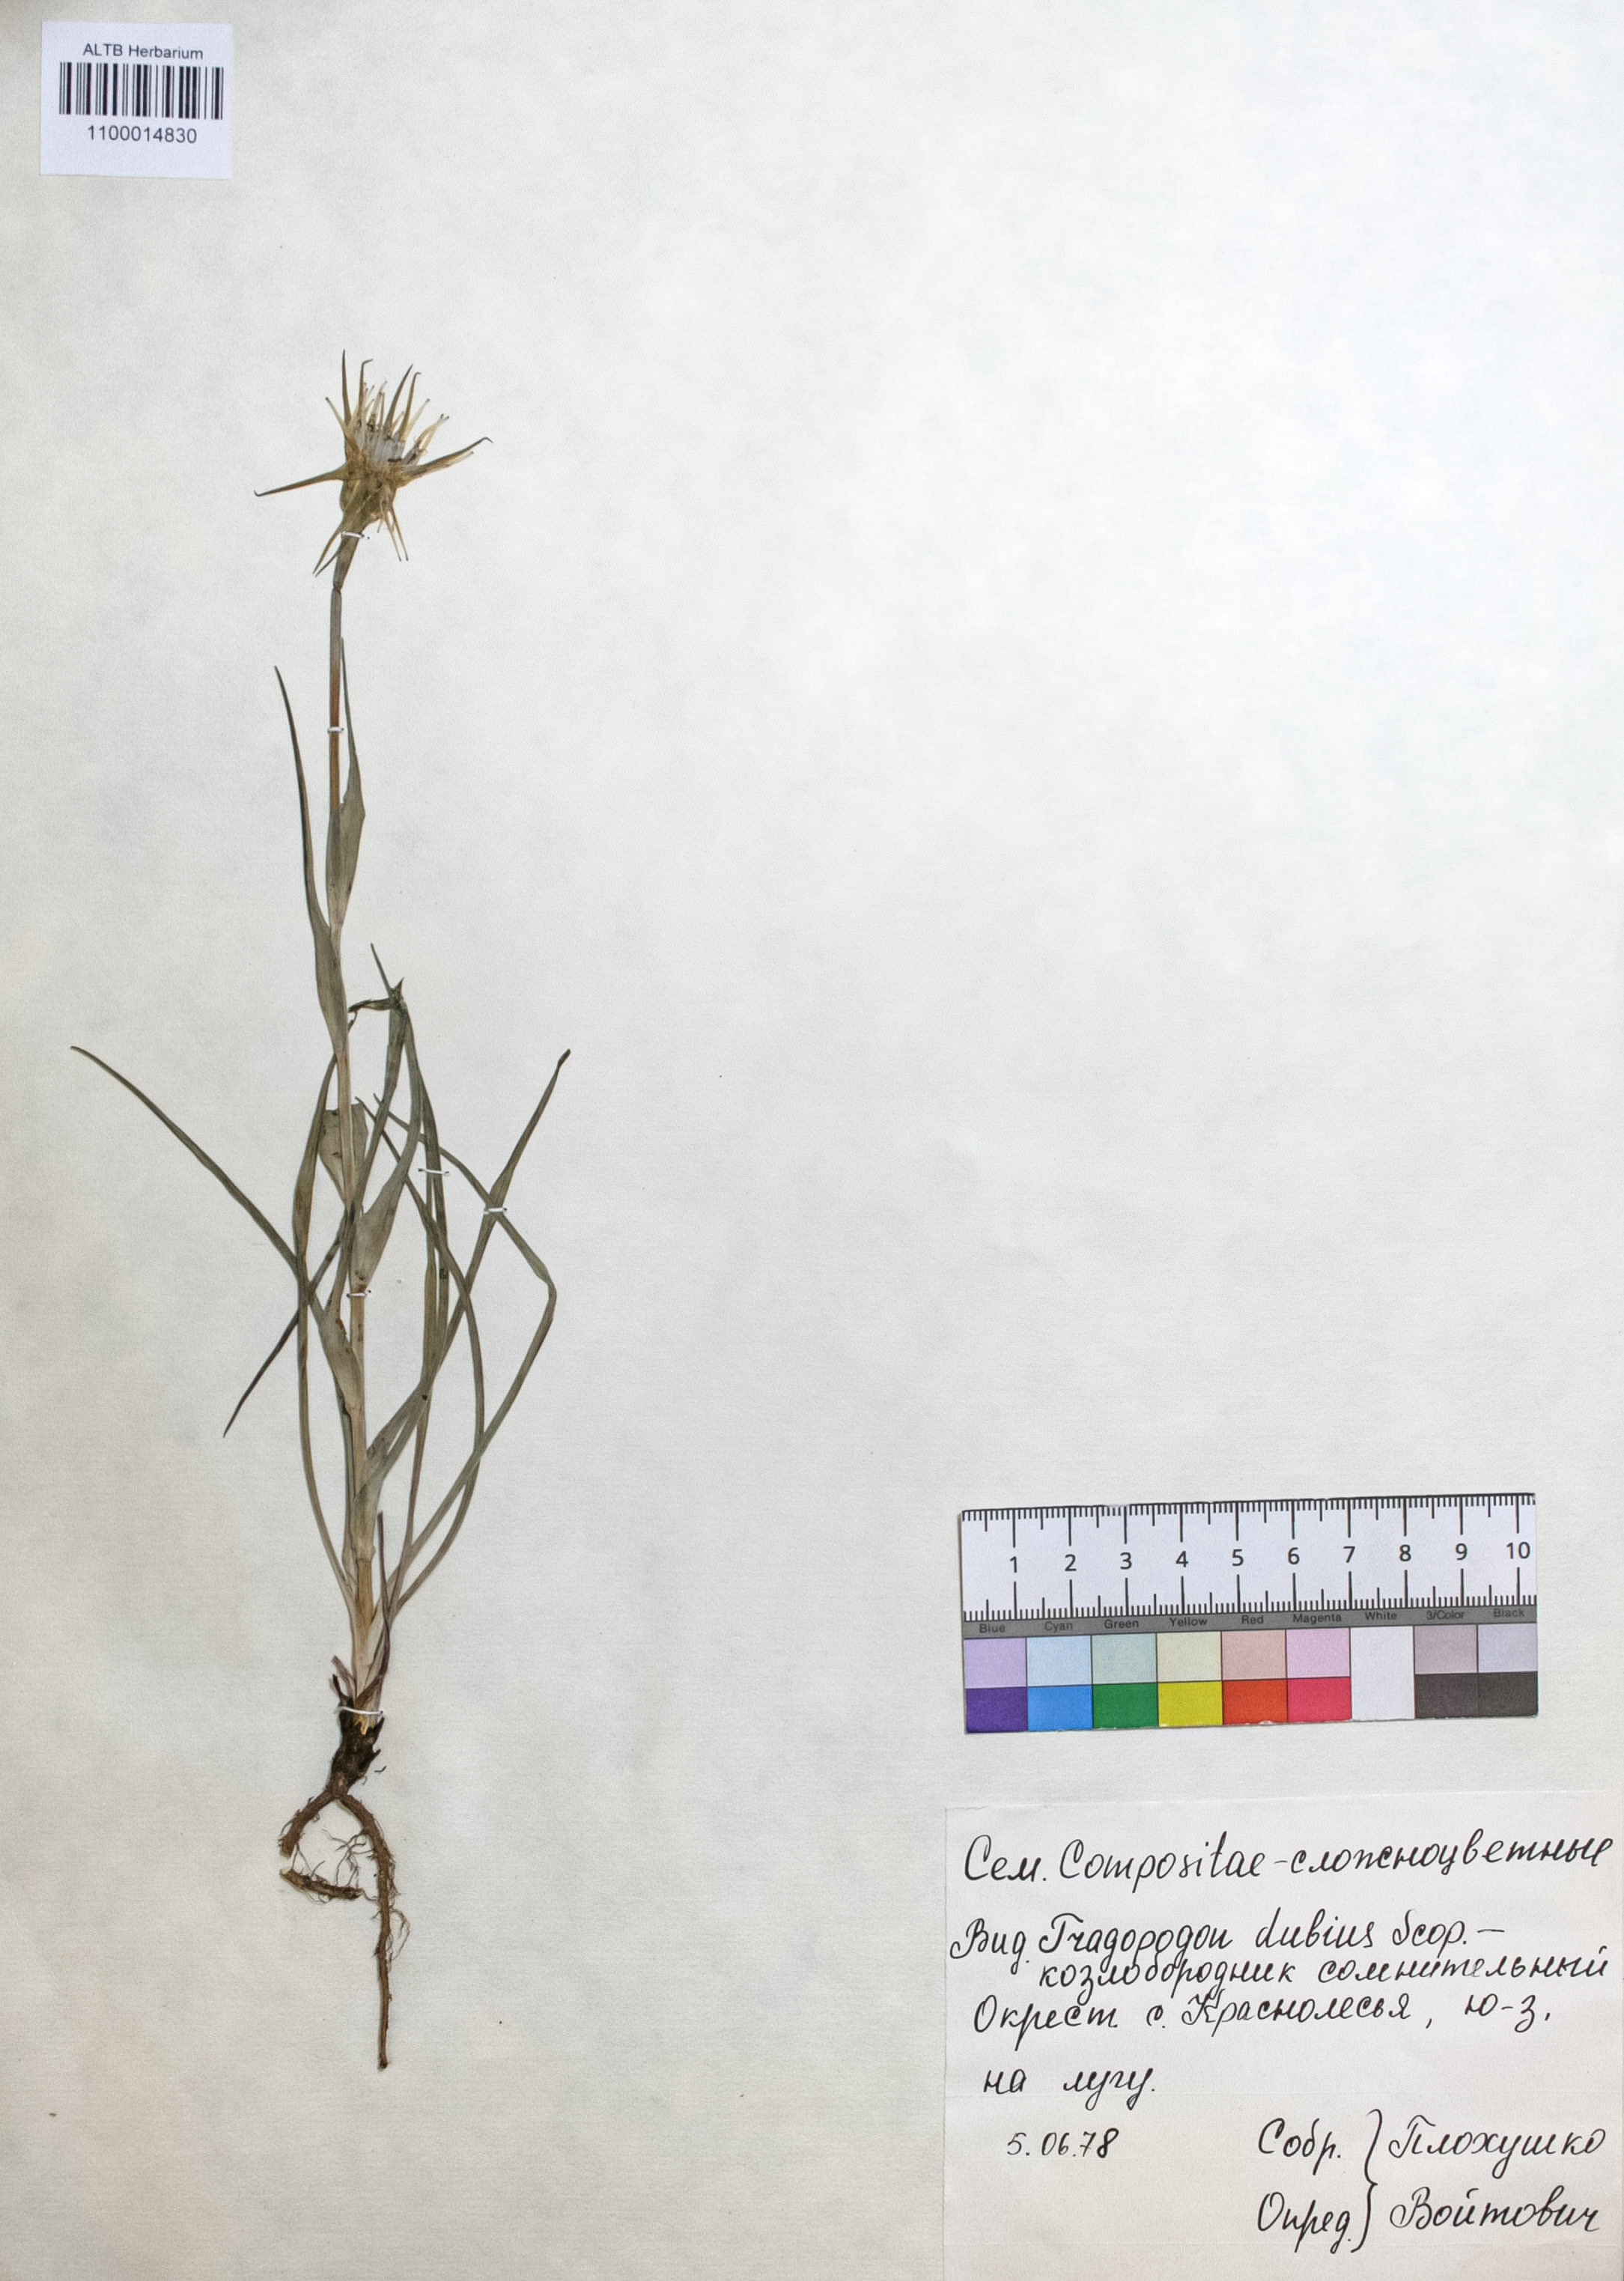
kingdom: Plantae
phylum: Tracheophyta
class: Magnoliopsida
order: Asterales
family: Asteraceae
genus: Tragopogon
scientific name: Tragopogon dubius
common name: Yellow salsify
